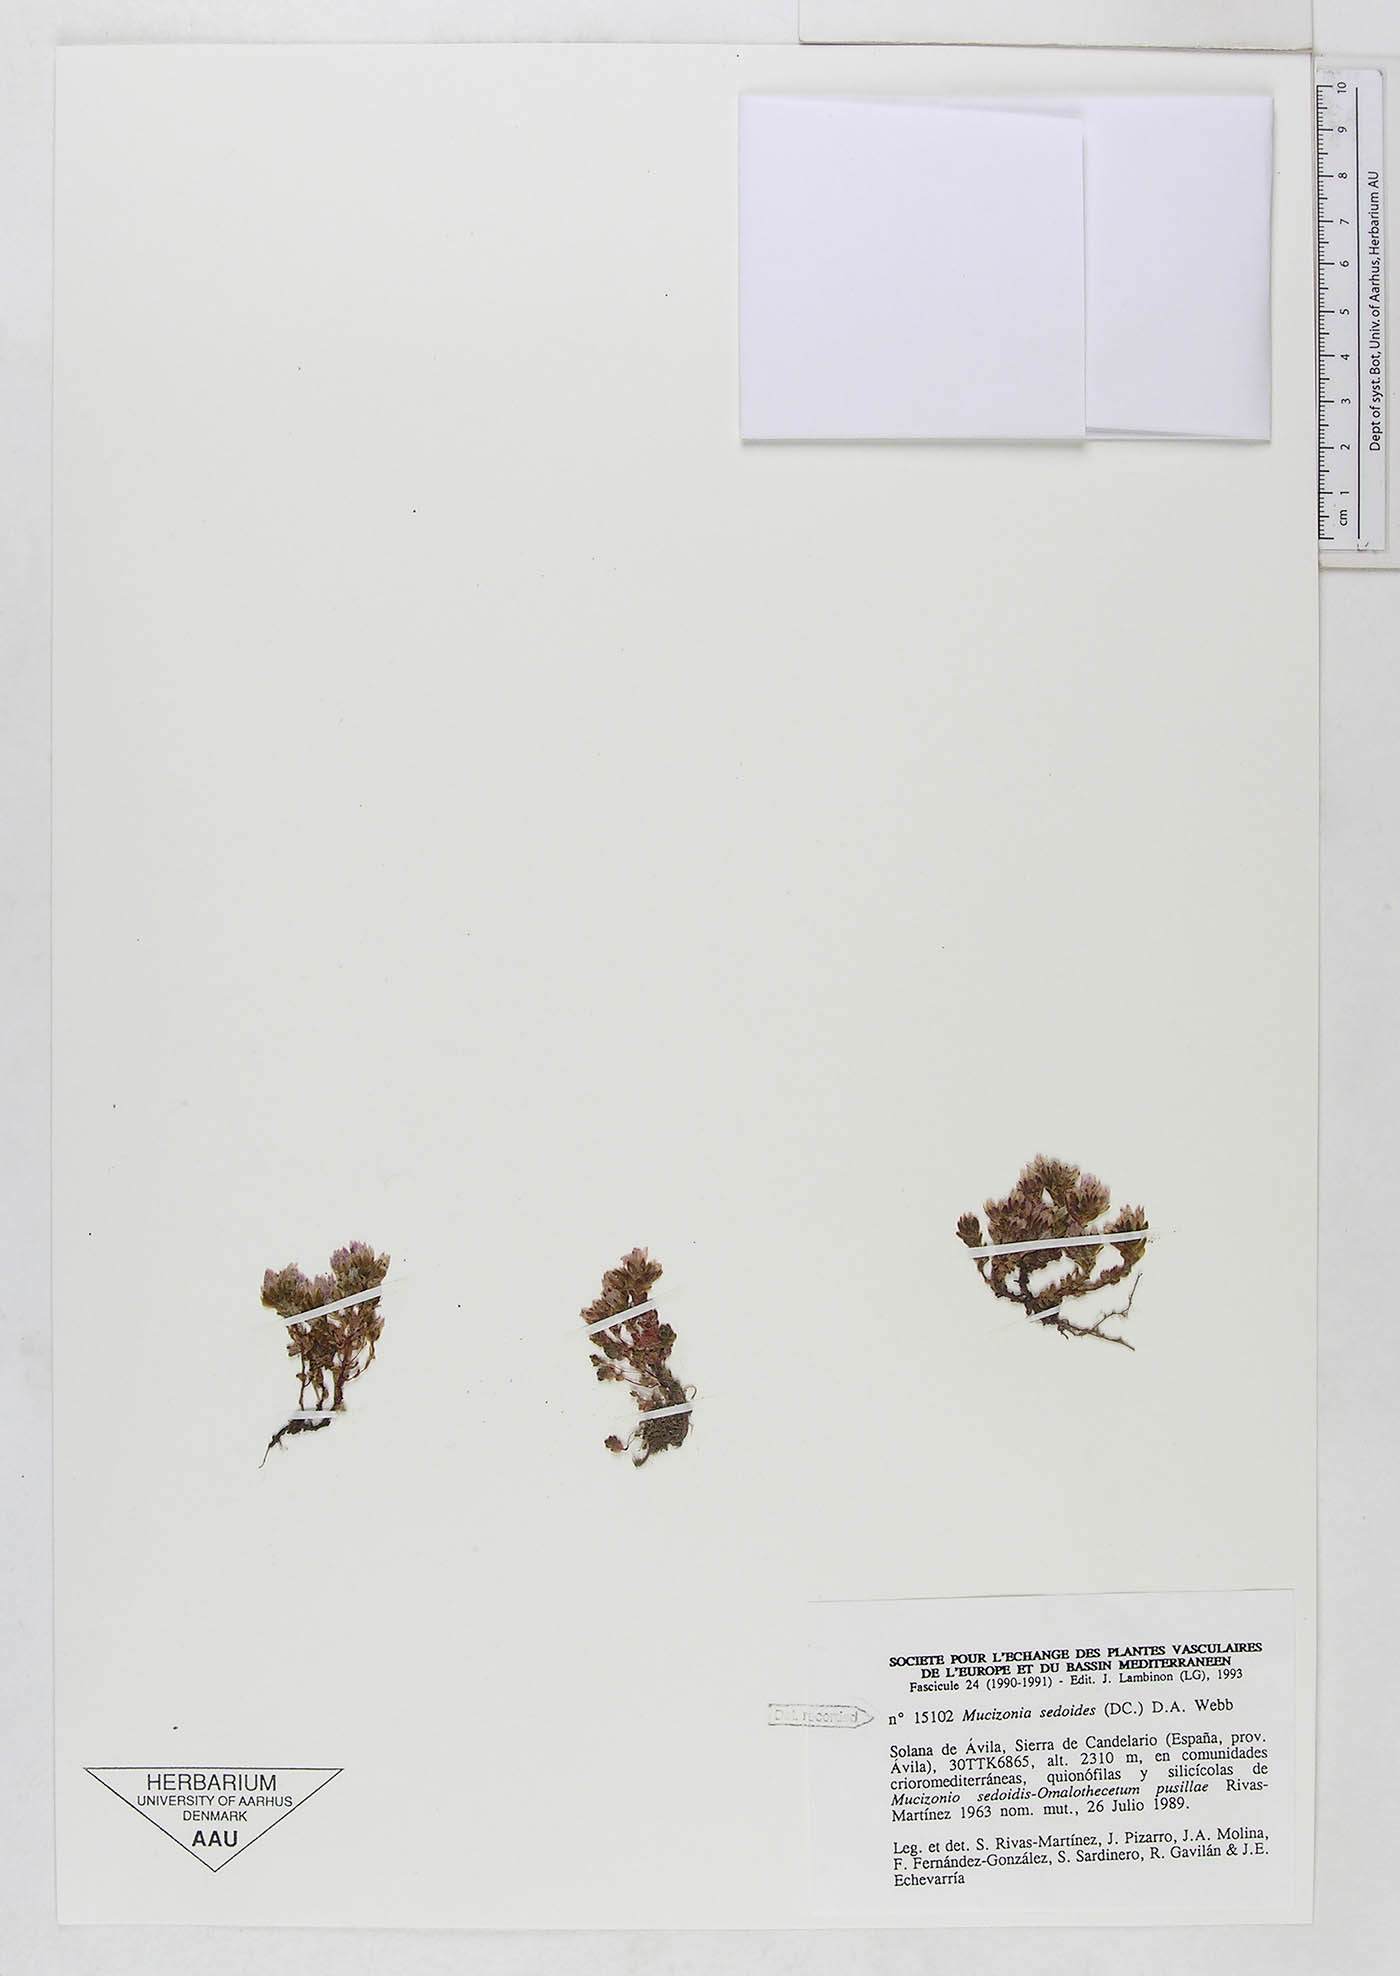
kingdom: Plantae
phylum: Tracheophyta
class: Magnoliopsida
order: Saxifragales
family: Crassulaceae
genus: Sedum
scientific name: Sedum candollei
